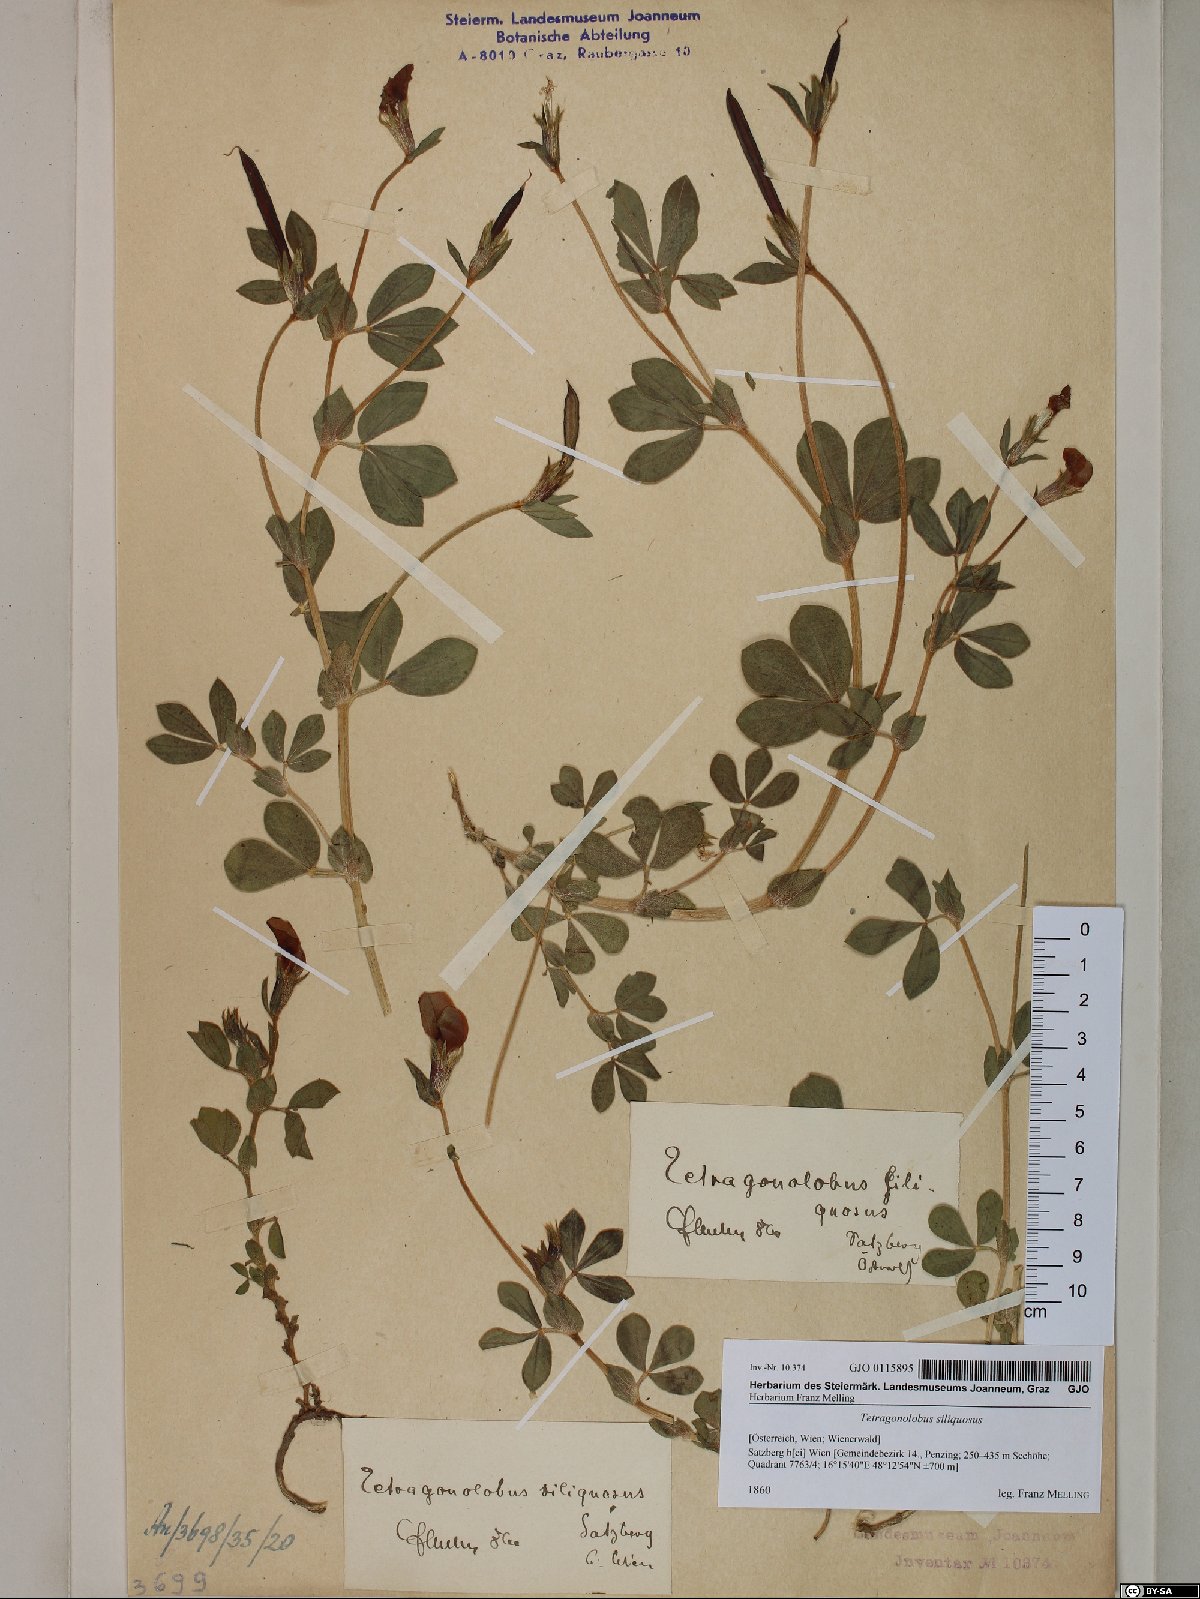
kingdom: Plantae
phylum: Tracheophyta
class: Magnoliopsida
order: Fabales
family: Fabaceae
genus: Lathyrus
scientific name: Lathyrus inconspicuus
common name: Inconspicuous pea
